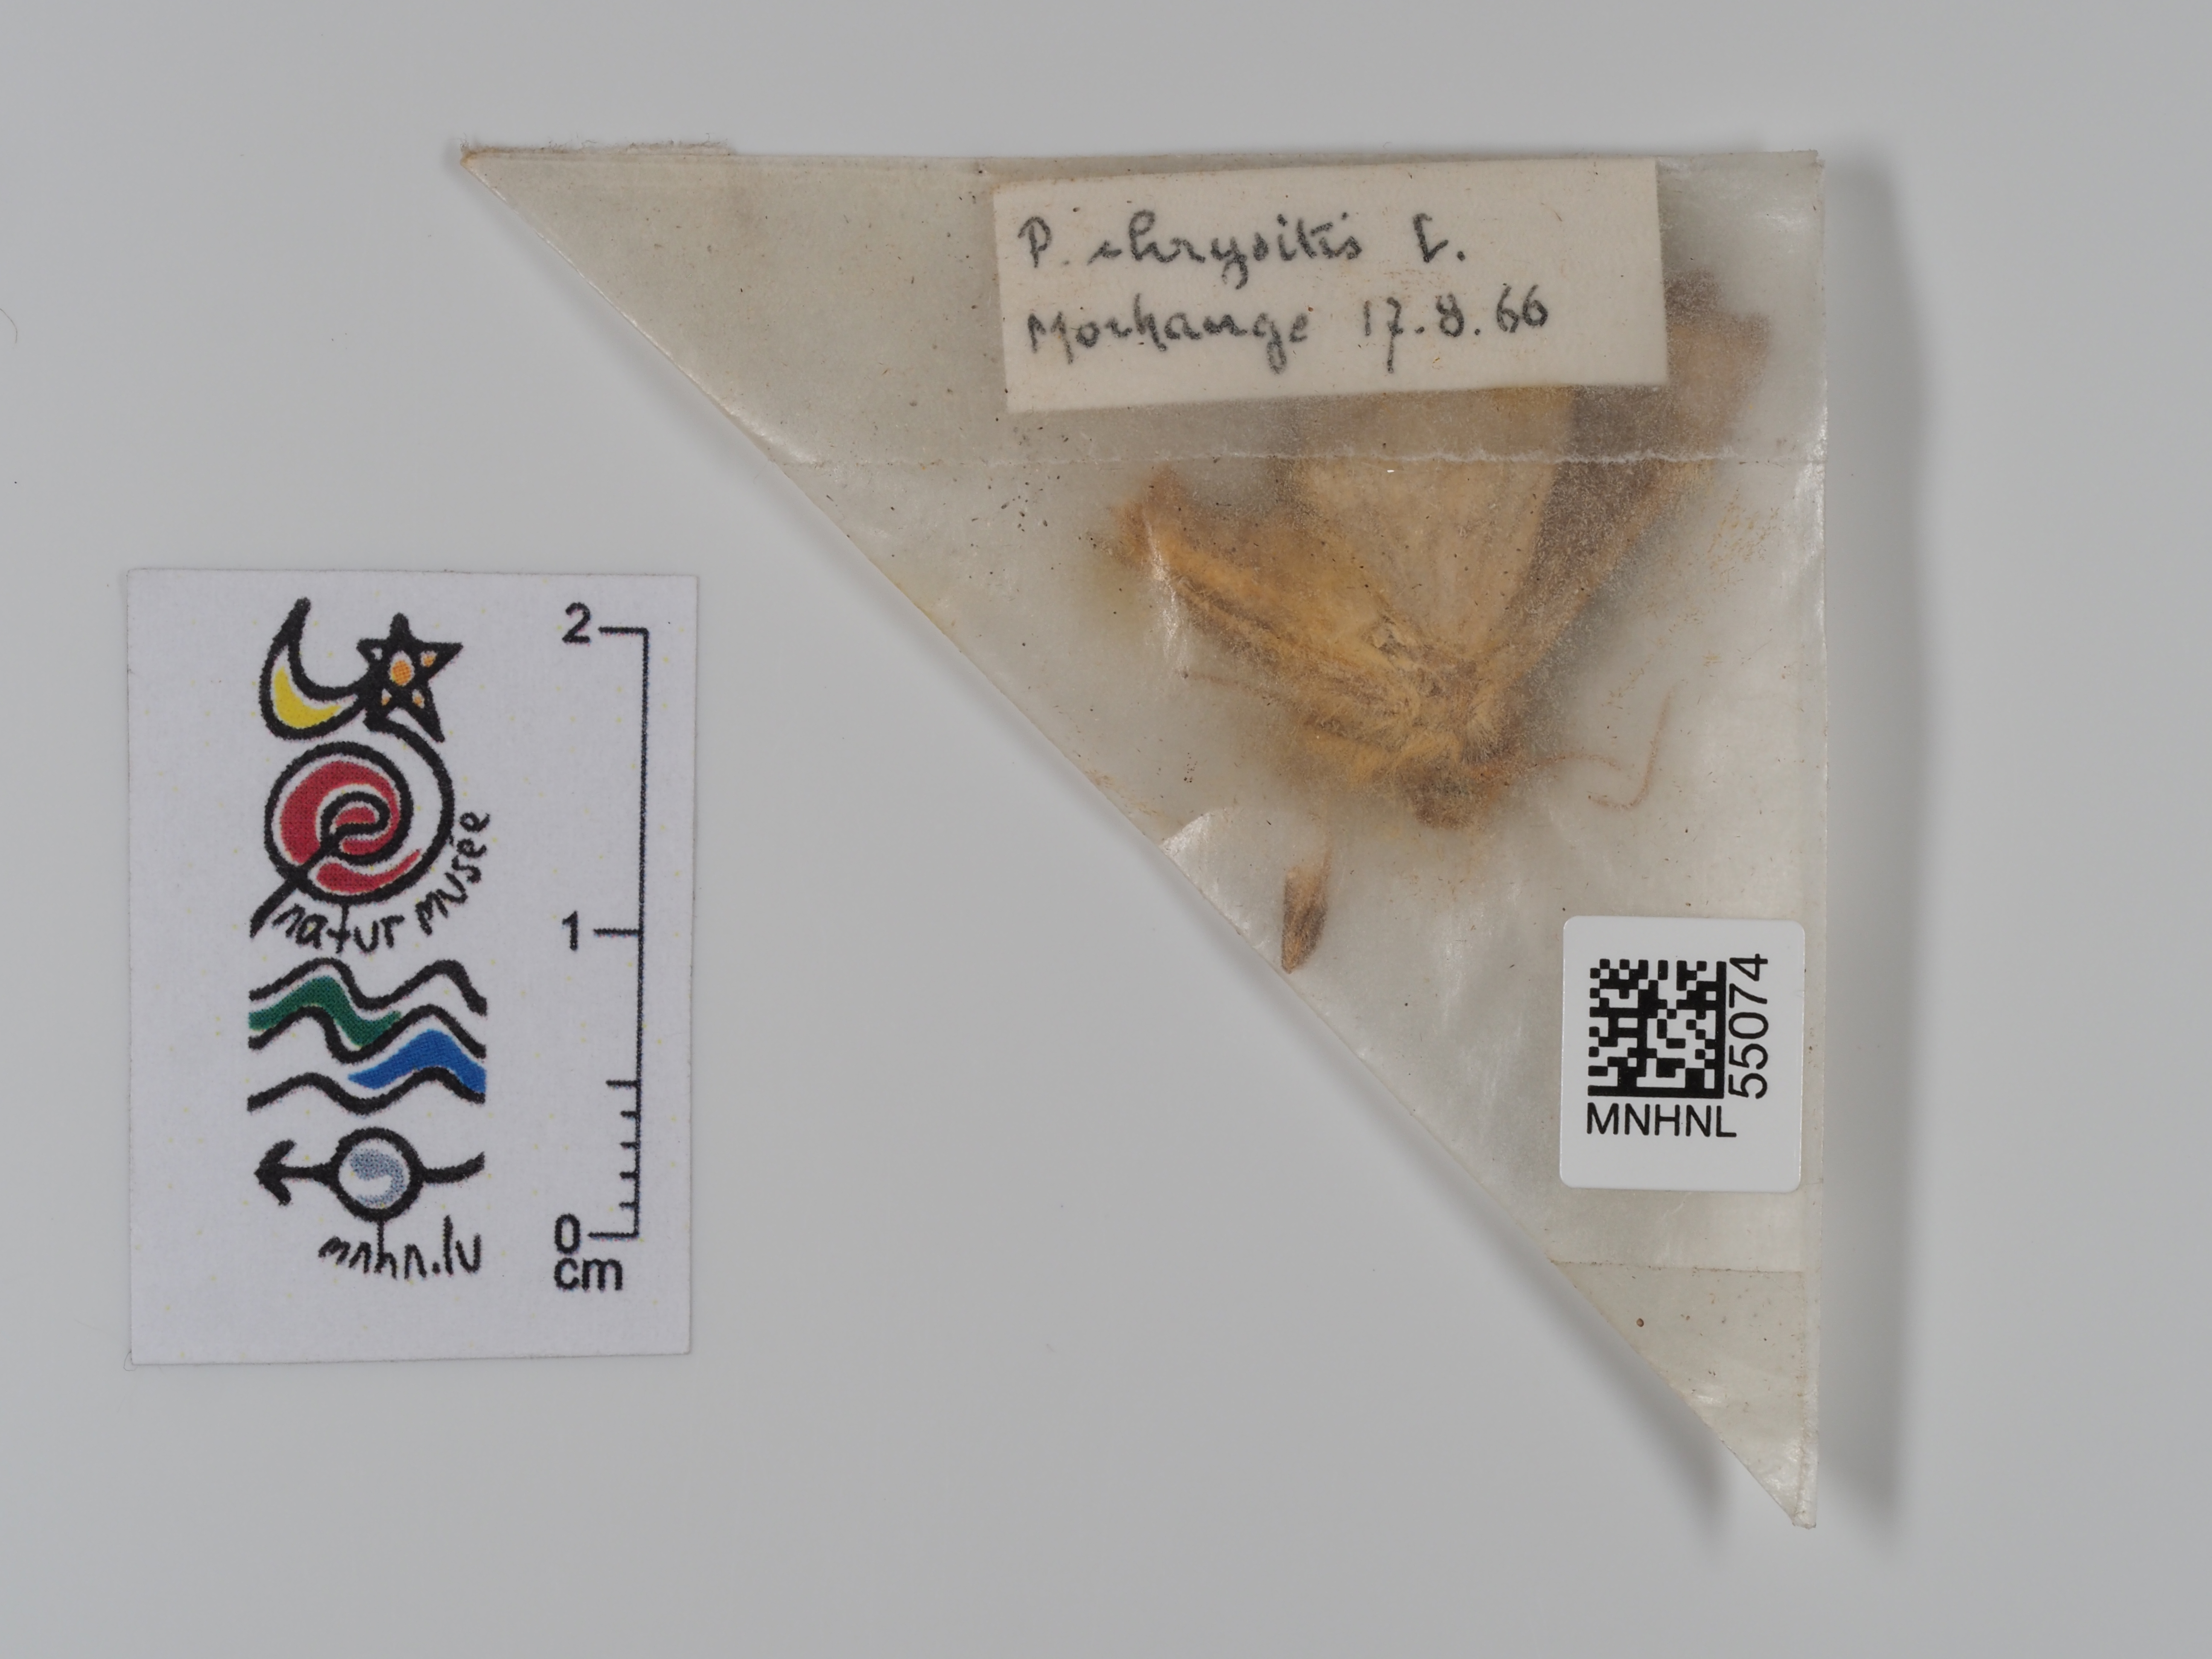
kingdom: Animalia
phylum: Arthropoda
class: Insecta
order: Lepidoptera
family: Noctuidae
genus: Diachrysia
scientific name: Diachrysia chrysitis
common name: Burnished brass
